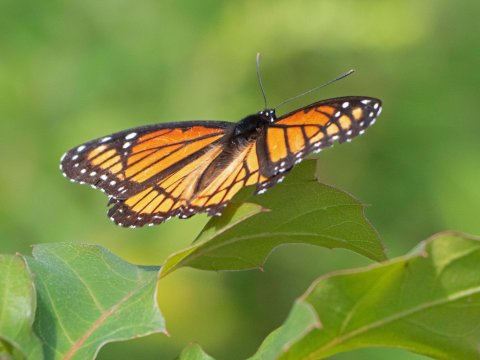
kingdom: Animalia
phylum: Arthropoda
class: Insecta
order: Lepidoptera
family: Nymphalidae
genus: Limenitis
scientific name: Limenitis archippus
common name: Viceroy
